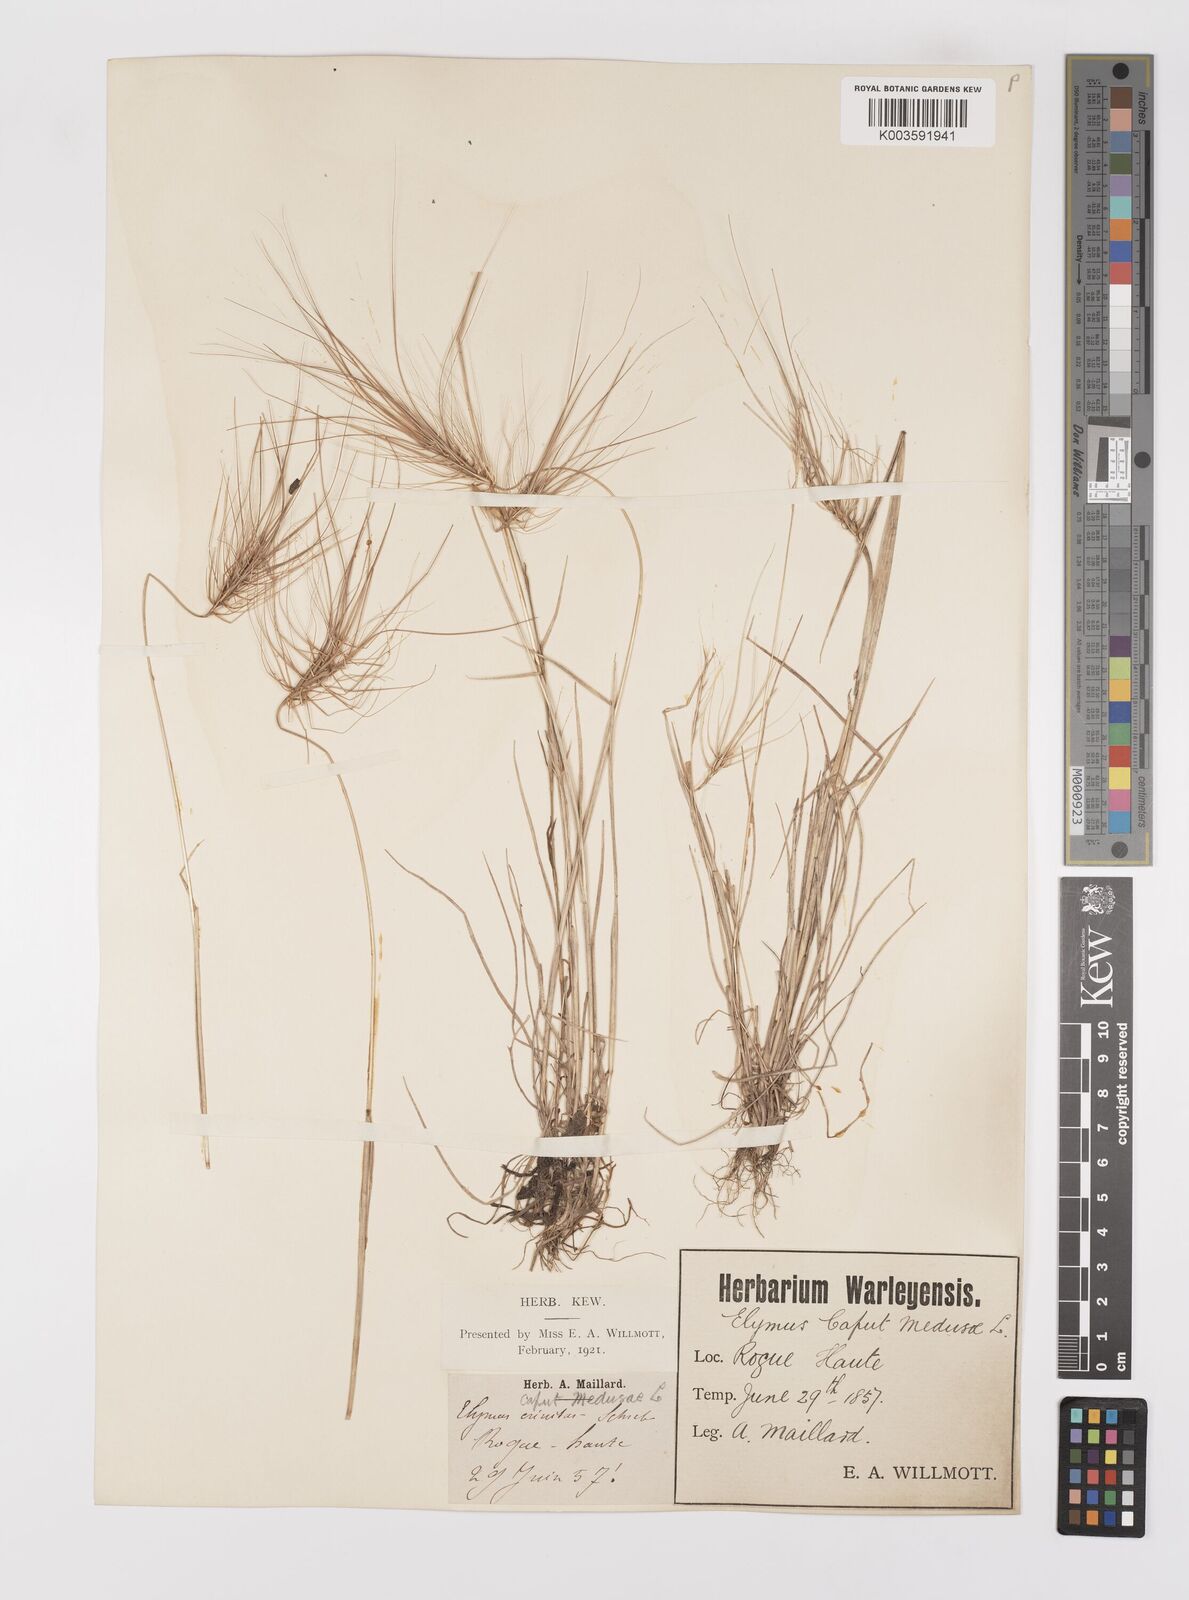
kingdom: Plantae
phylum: Tracheophyta
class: Liliopsida
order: Poales
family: Poaceae
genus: Taeniatherum
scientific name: Taeniatherum caput-medusae
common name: Medusahead
